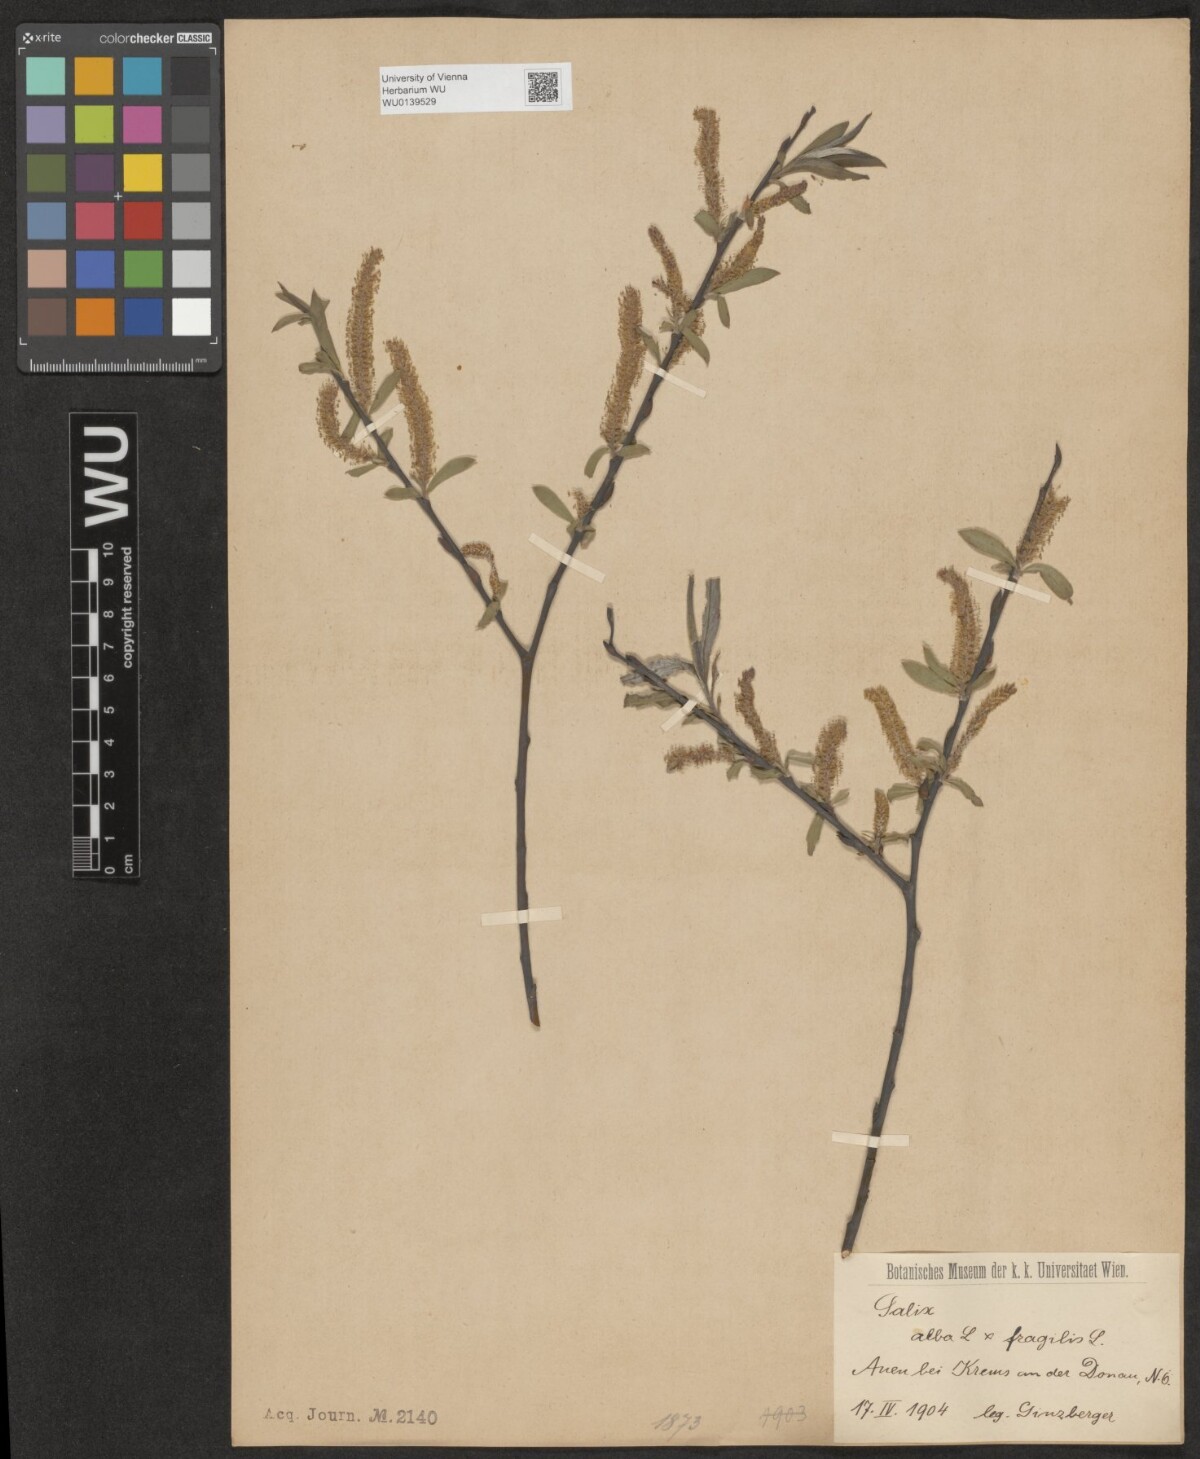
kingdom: Plantae
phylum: Tracheophyta
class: Magnoliopsida
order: Malpighiales
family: Salicaceae
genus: Salix
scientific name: Salix rubens
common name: Hybrid crack willow
